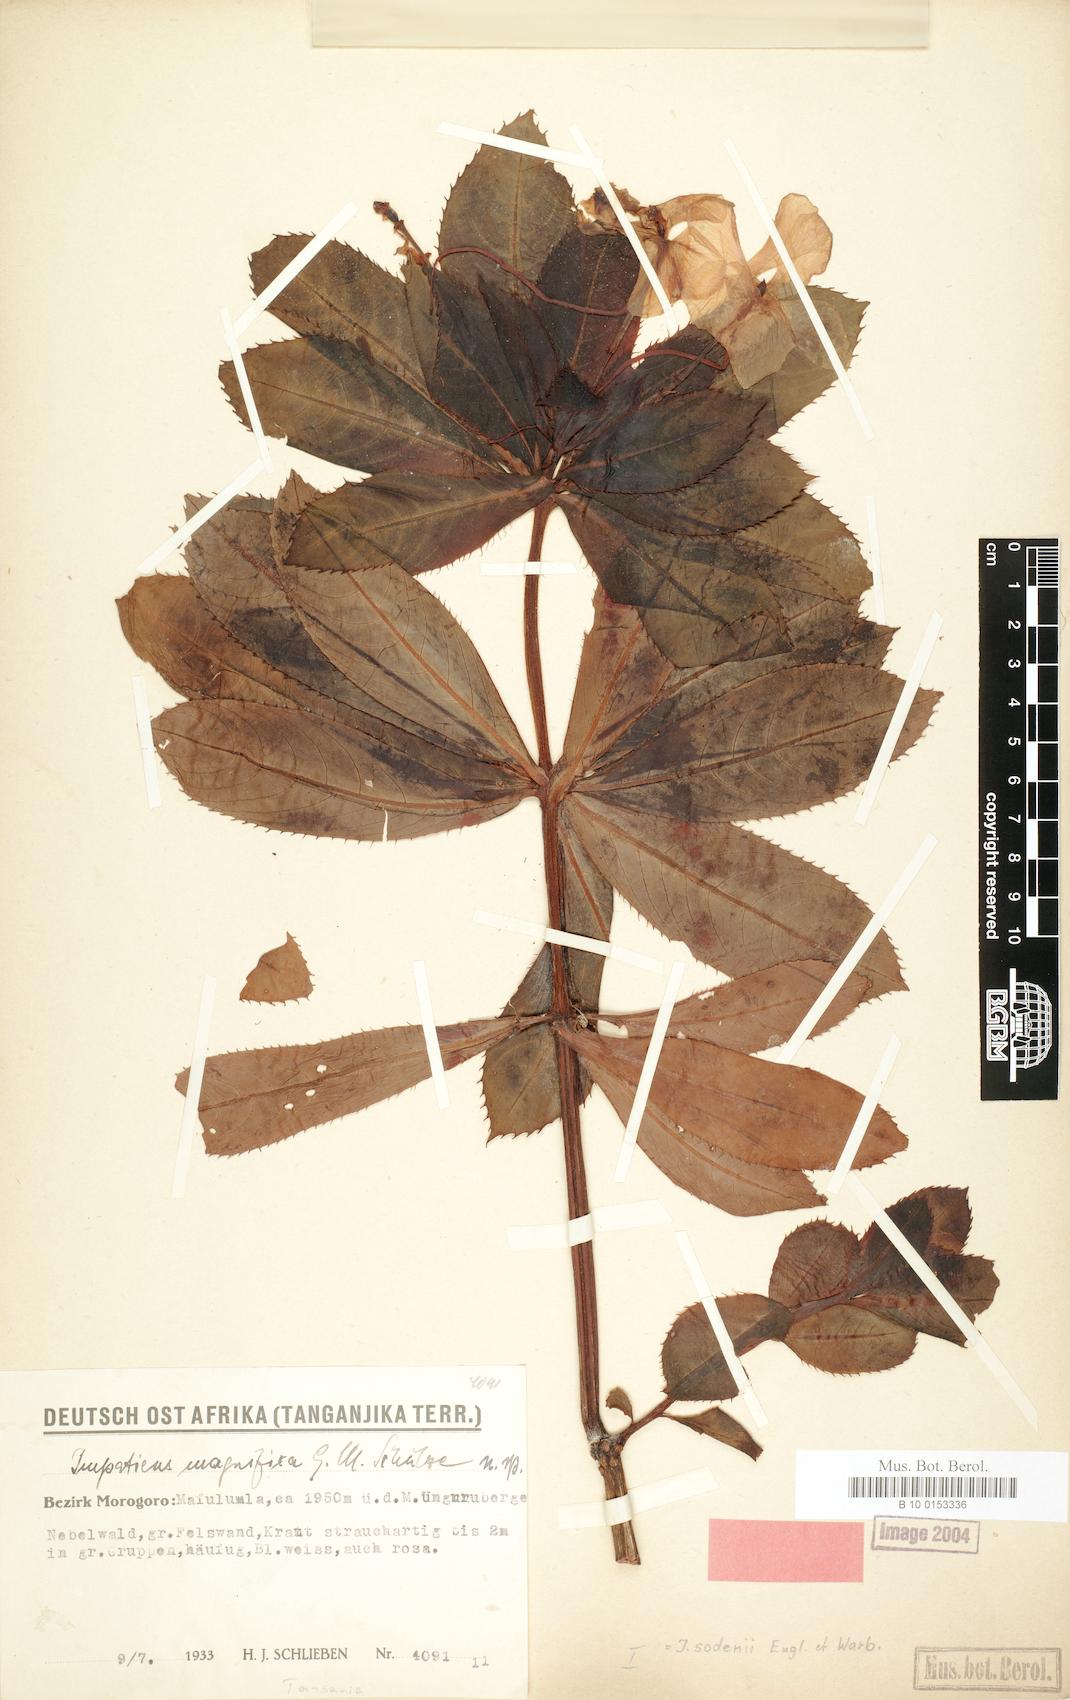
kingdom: Plantae
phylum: Tracheophyta
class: Magnoliopsida
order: Ericales
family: Balsaminaceae
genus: Impatiens
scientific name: Impatiens sodenii
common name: Oliver's touch-me-not
